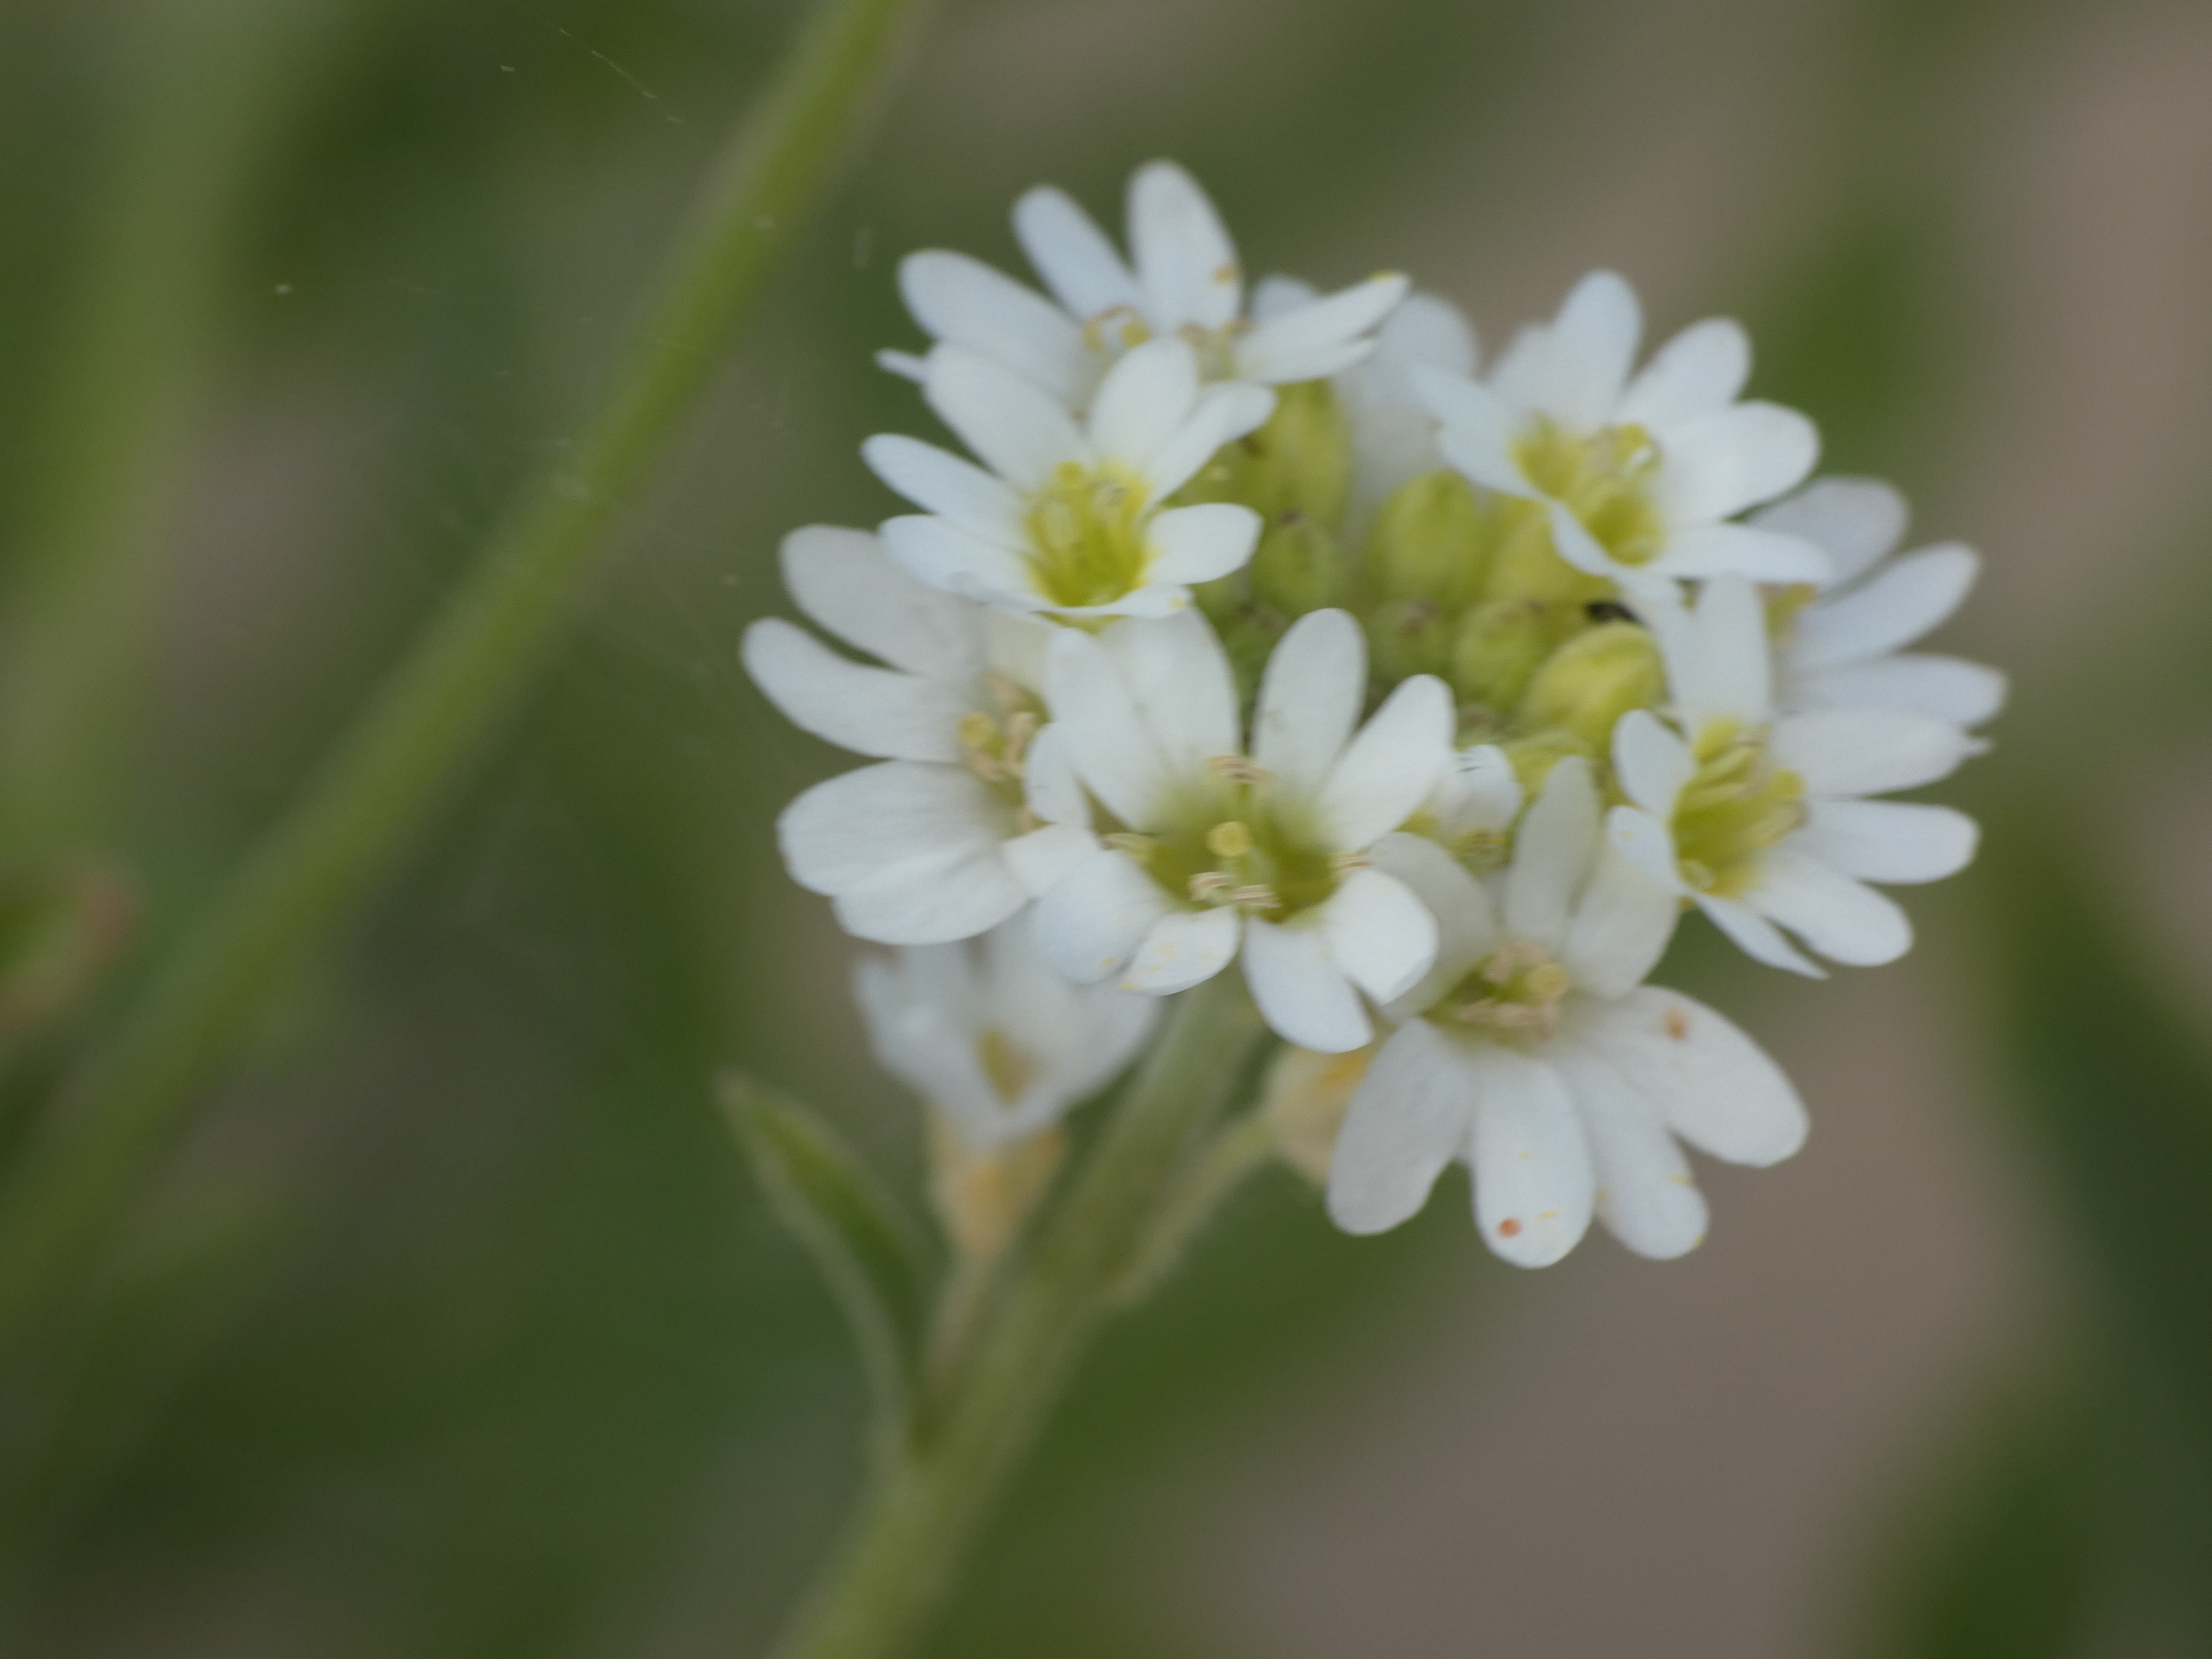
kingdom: Plantae
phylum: Tracheophyta
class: Magnoliopsida
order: Brassicales
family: Brassicaceae
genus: Berteroa
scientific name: Berteroa incana
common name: Kløvplade
